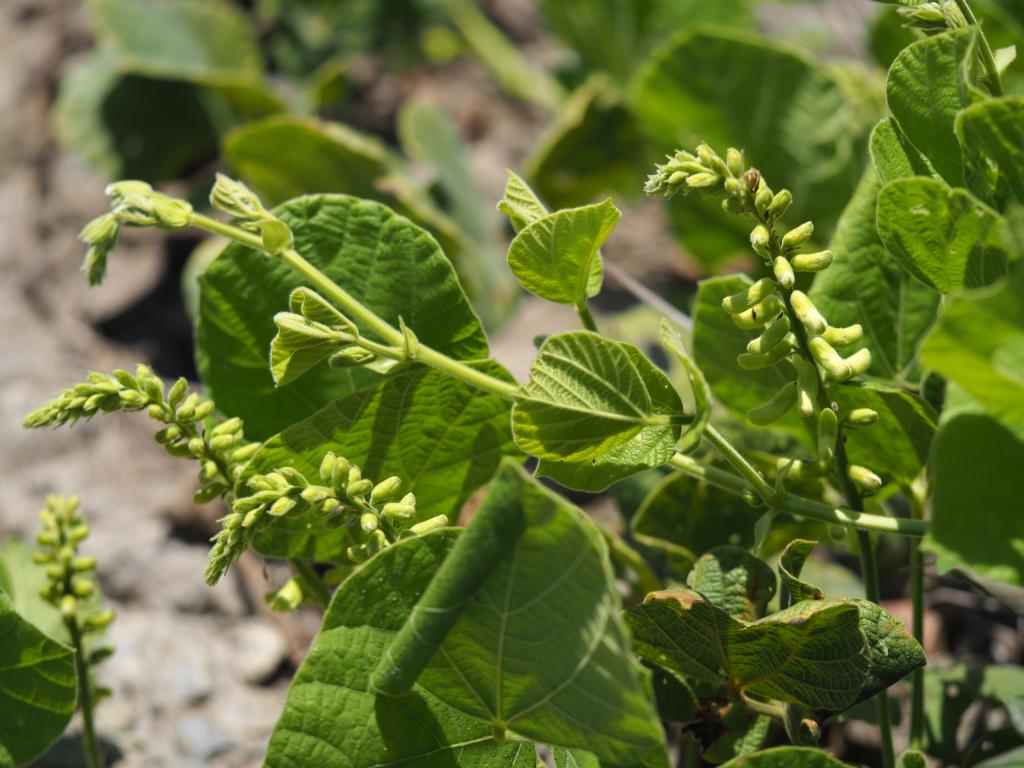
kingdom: Plantae
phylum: Tracheophyta
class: Magnoliopsida
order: Fabales
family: Fabaceae
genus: Rhynchosia
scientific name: Rhynchosia rothii
